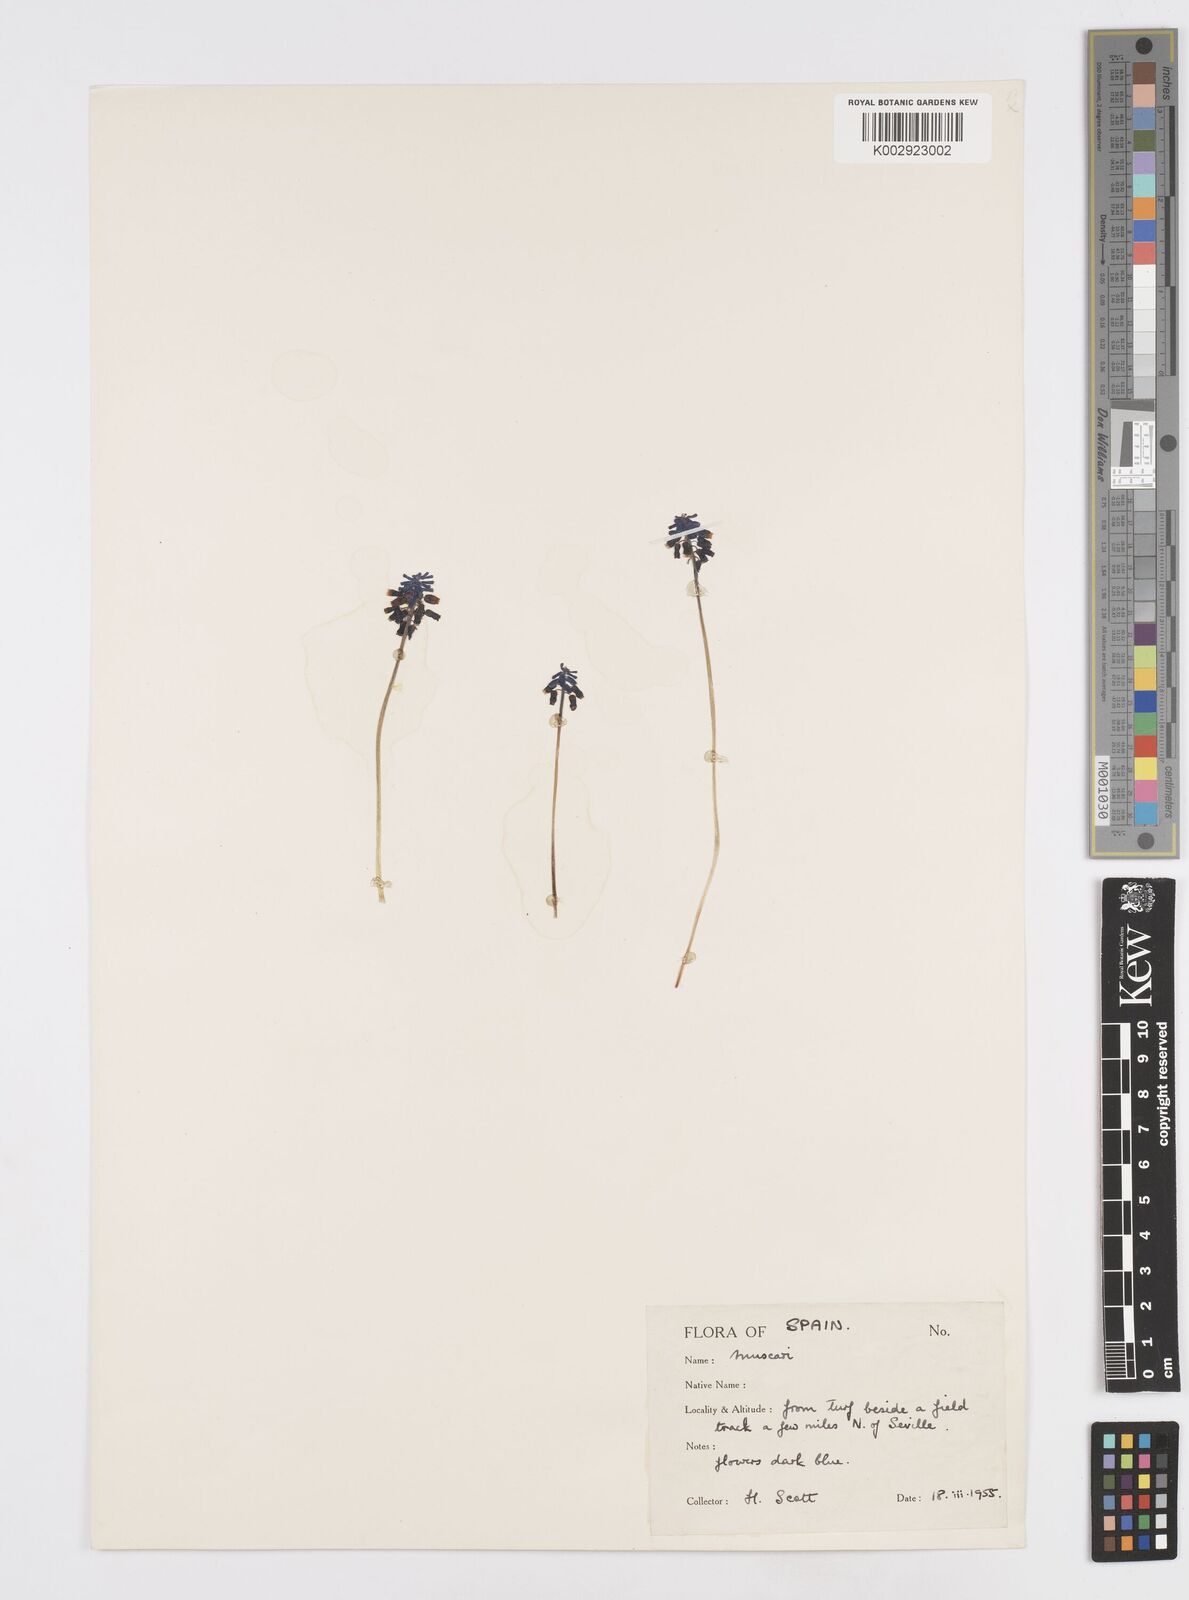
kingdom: Plantae
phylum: Tracheophyta
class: Liliopsida
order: Asparagales
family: Asparagaceae
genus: Muscarimia
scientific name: Muscarimia muscari
